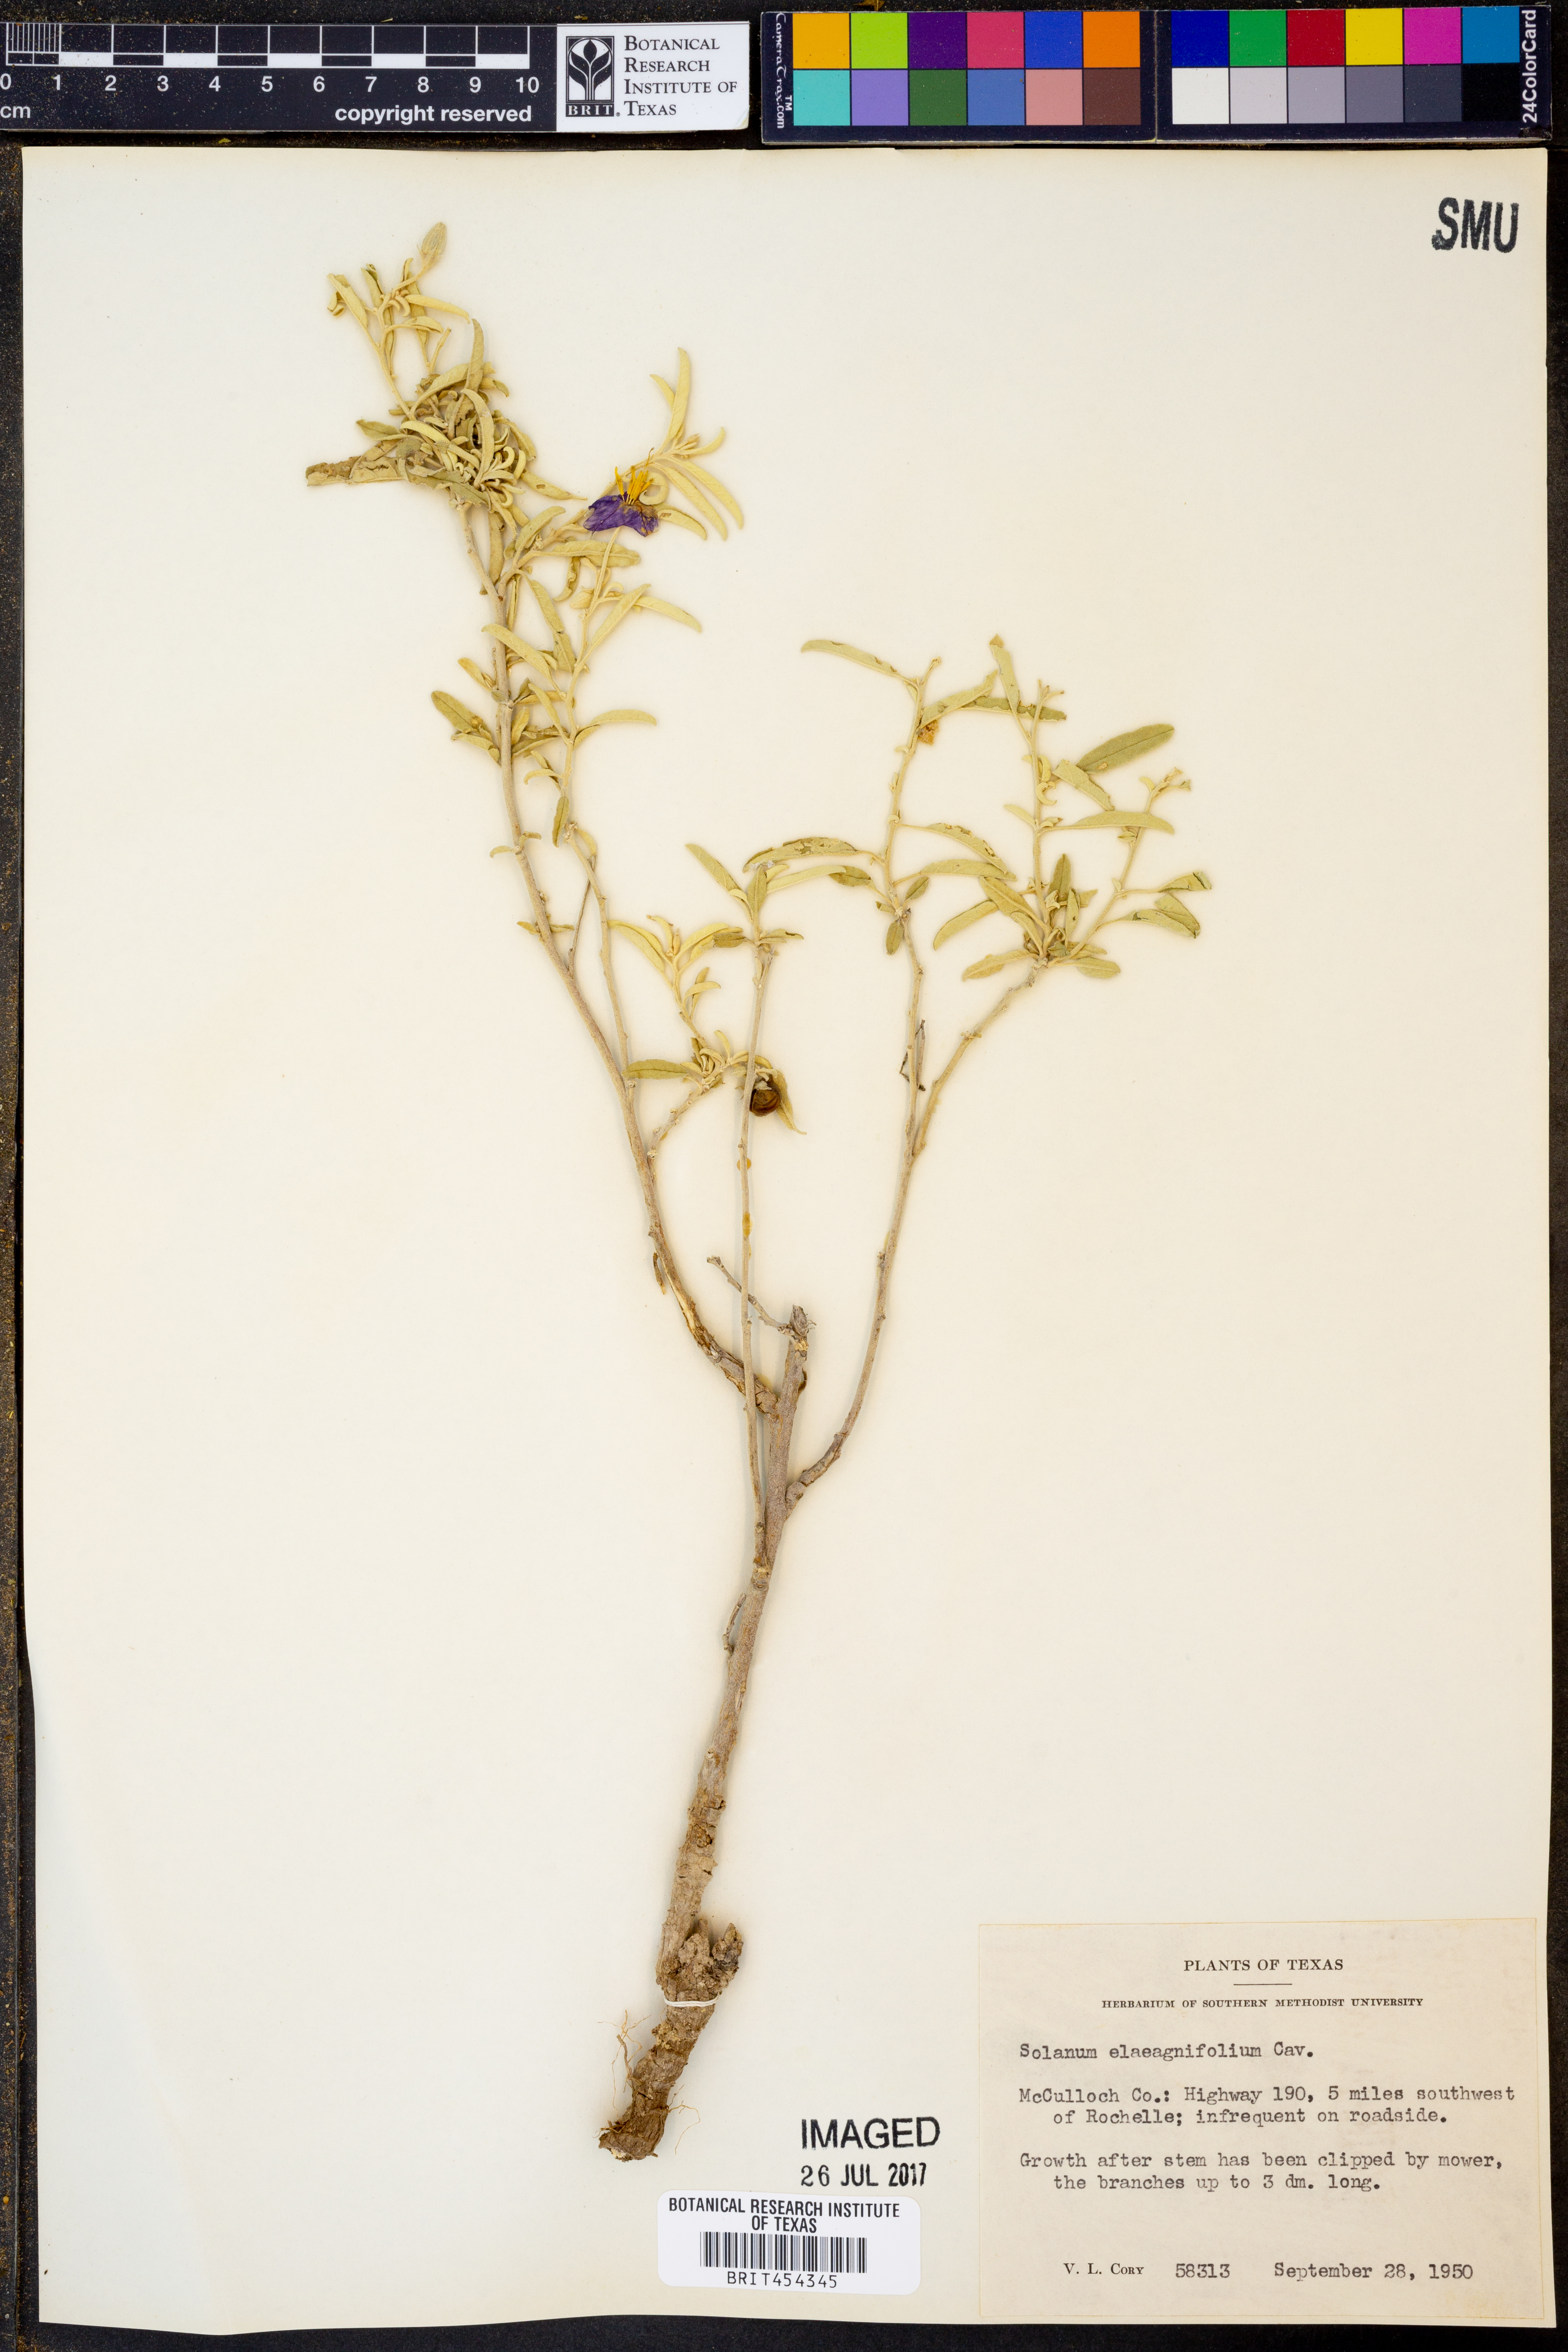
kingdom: Plantae
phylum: Tracheophyta
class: Magnoliopsida
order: Solanales
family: Solanaceae
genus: Solanum
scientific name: Solanum elaeagnifolium
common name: Silverleaf nightshade
